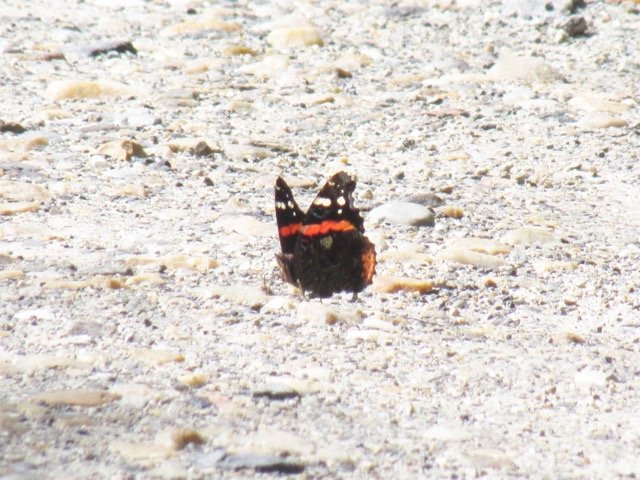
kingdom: Animalia
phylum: Arthropoda
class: Insecta
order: Lepidoptera
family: Nymphalidae
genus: Vanessa
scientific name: Vanessa atalanta
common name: Red Admiral
